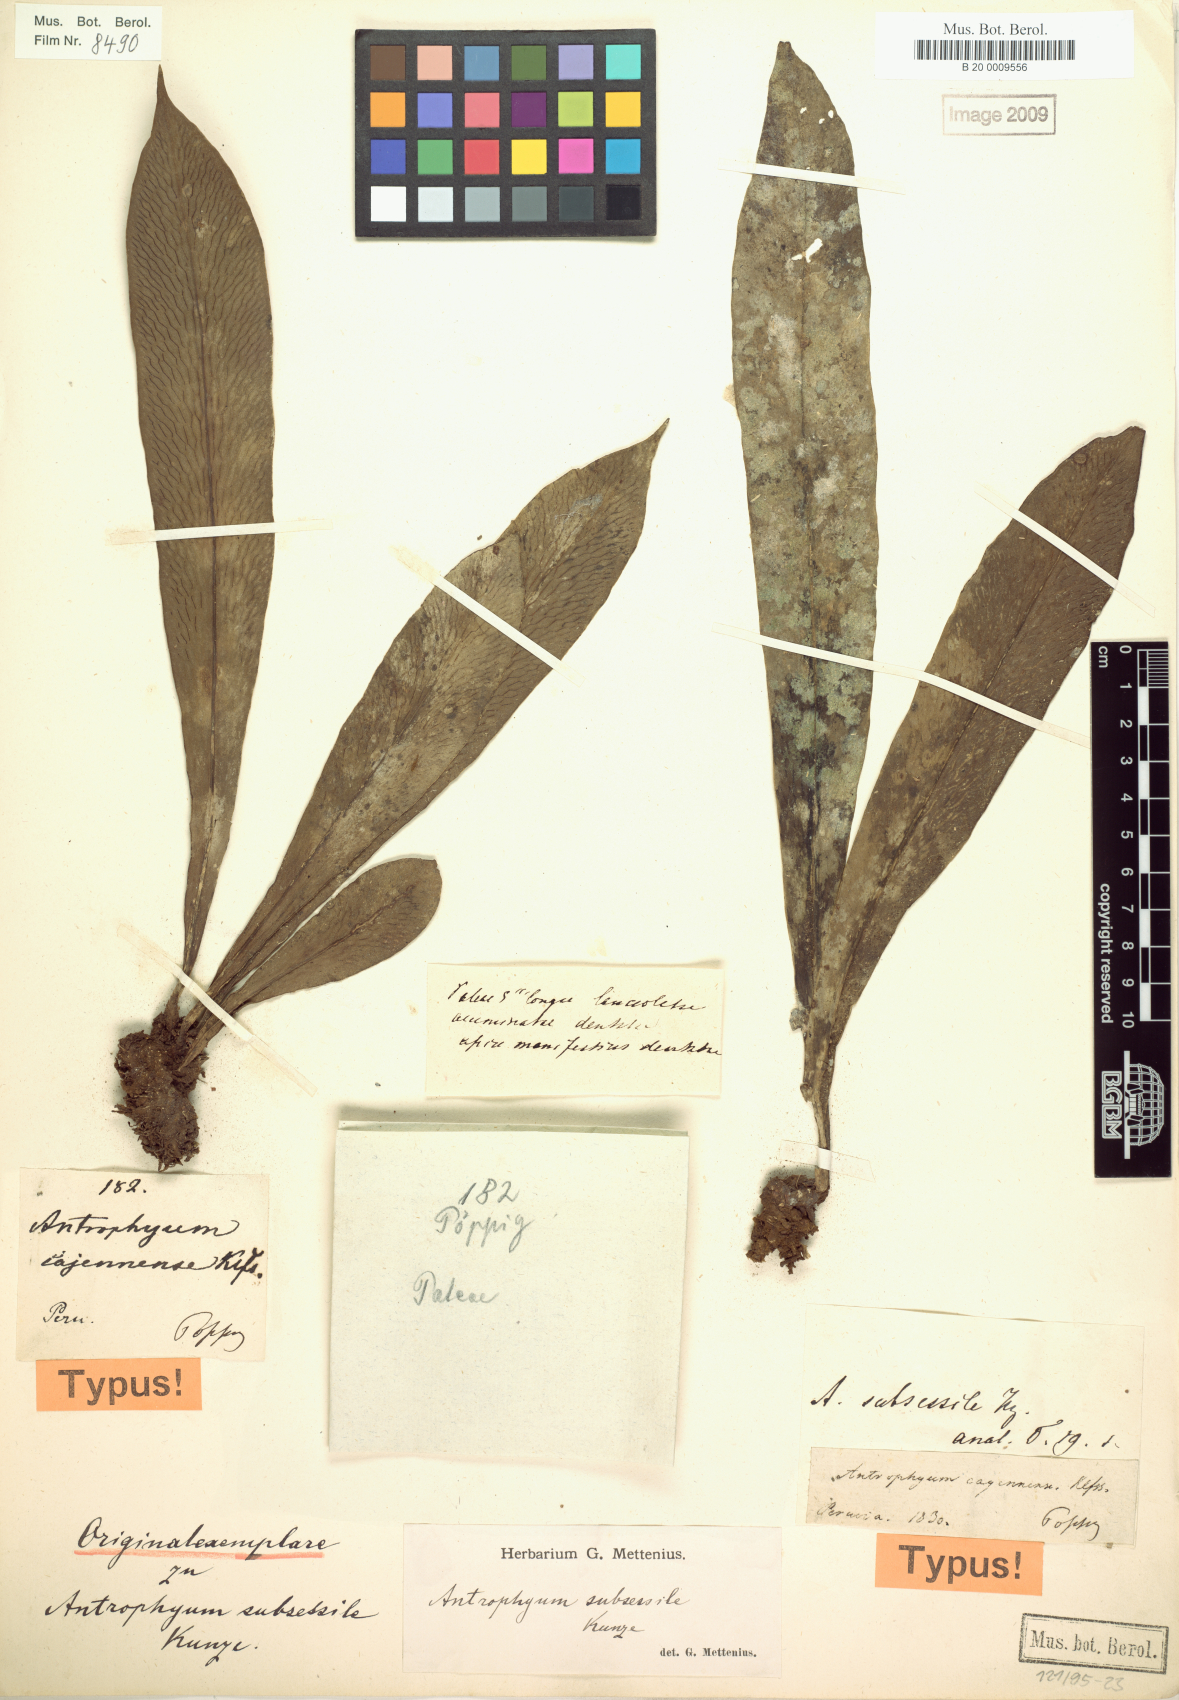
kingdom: Plantae
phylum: Tracheophyta
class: Polypodiopsida
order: Polypodiales
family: Pteridaceae
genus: Polytaenium
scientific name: Polytaenium cajenense
